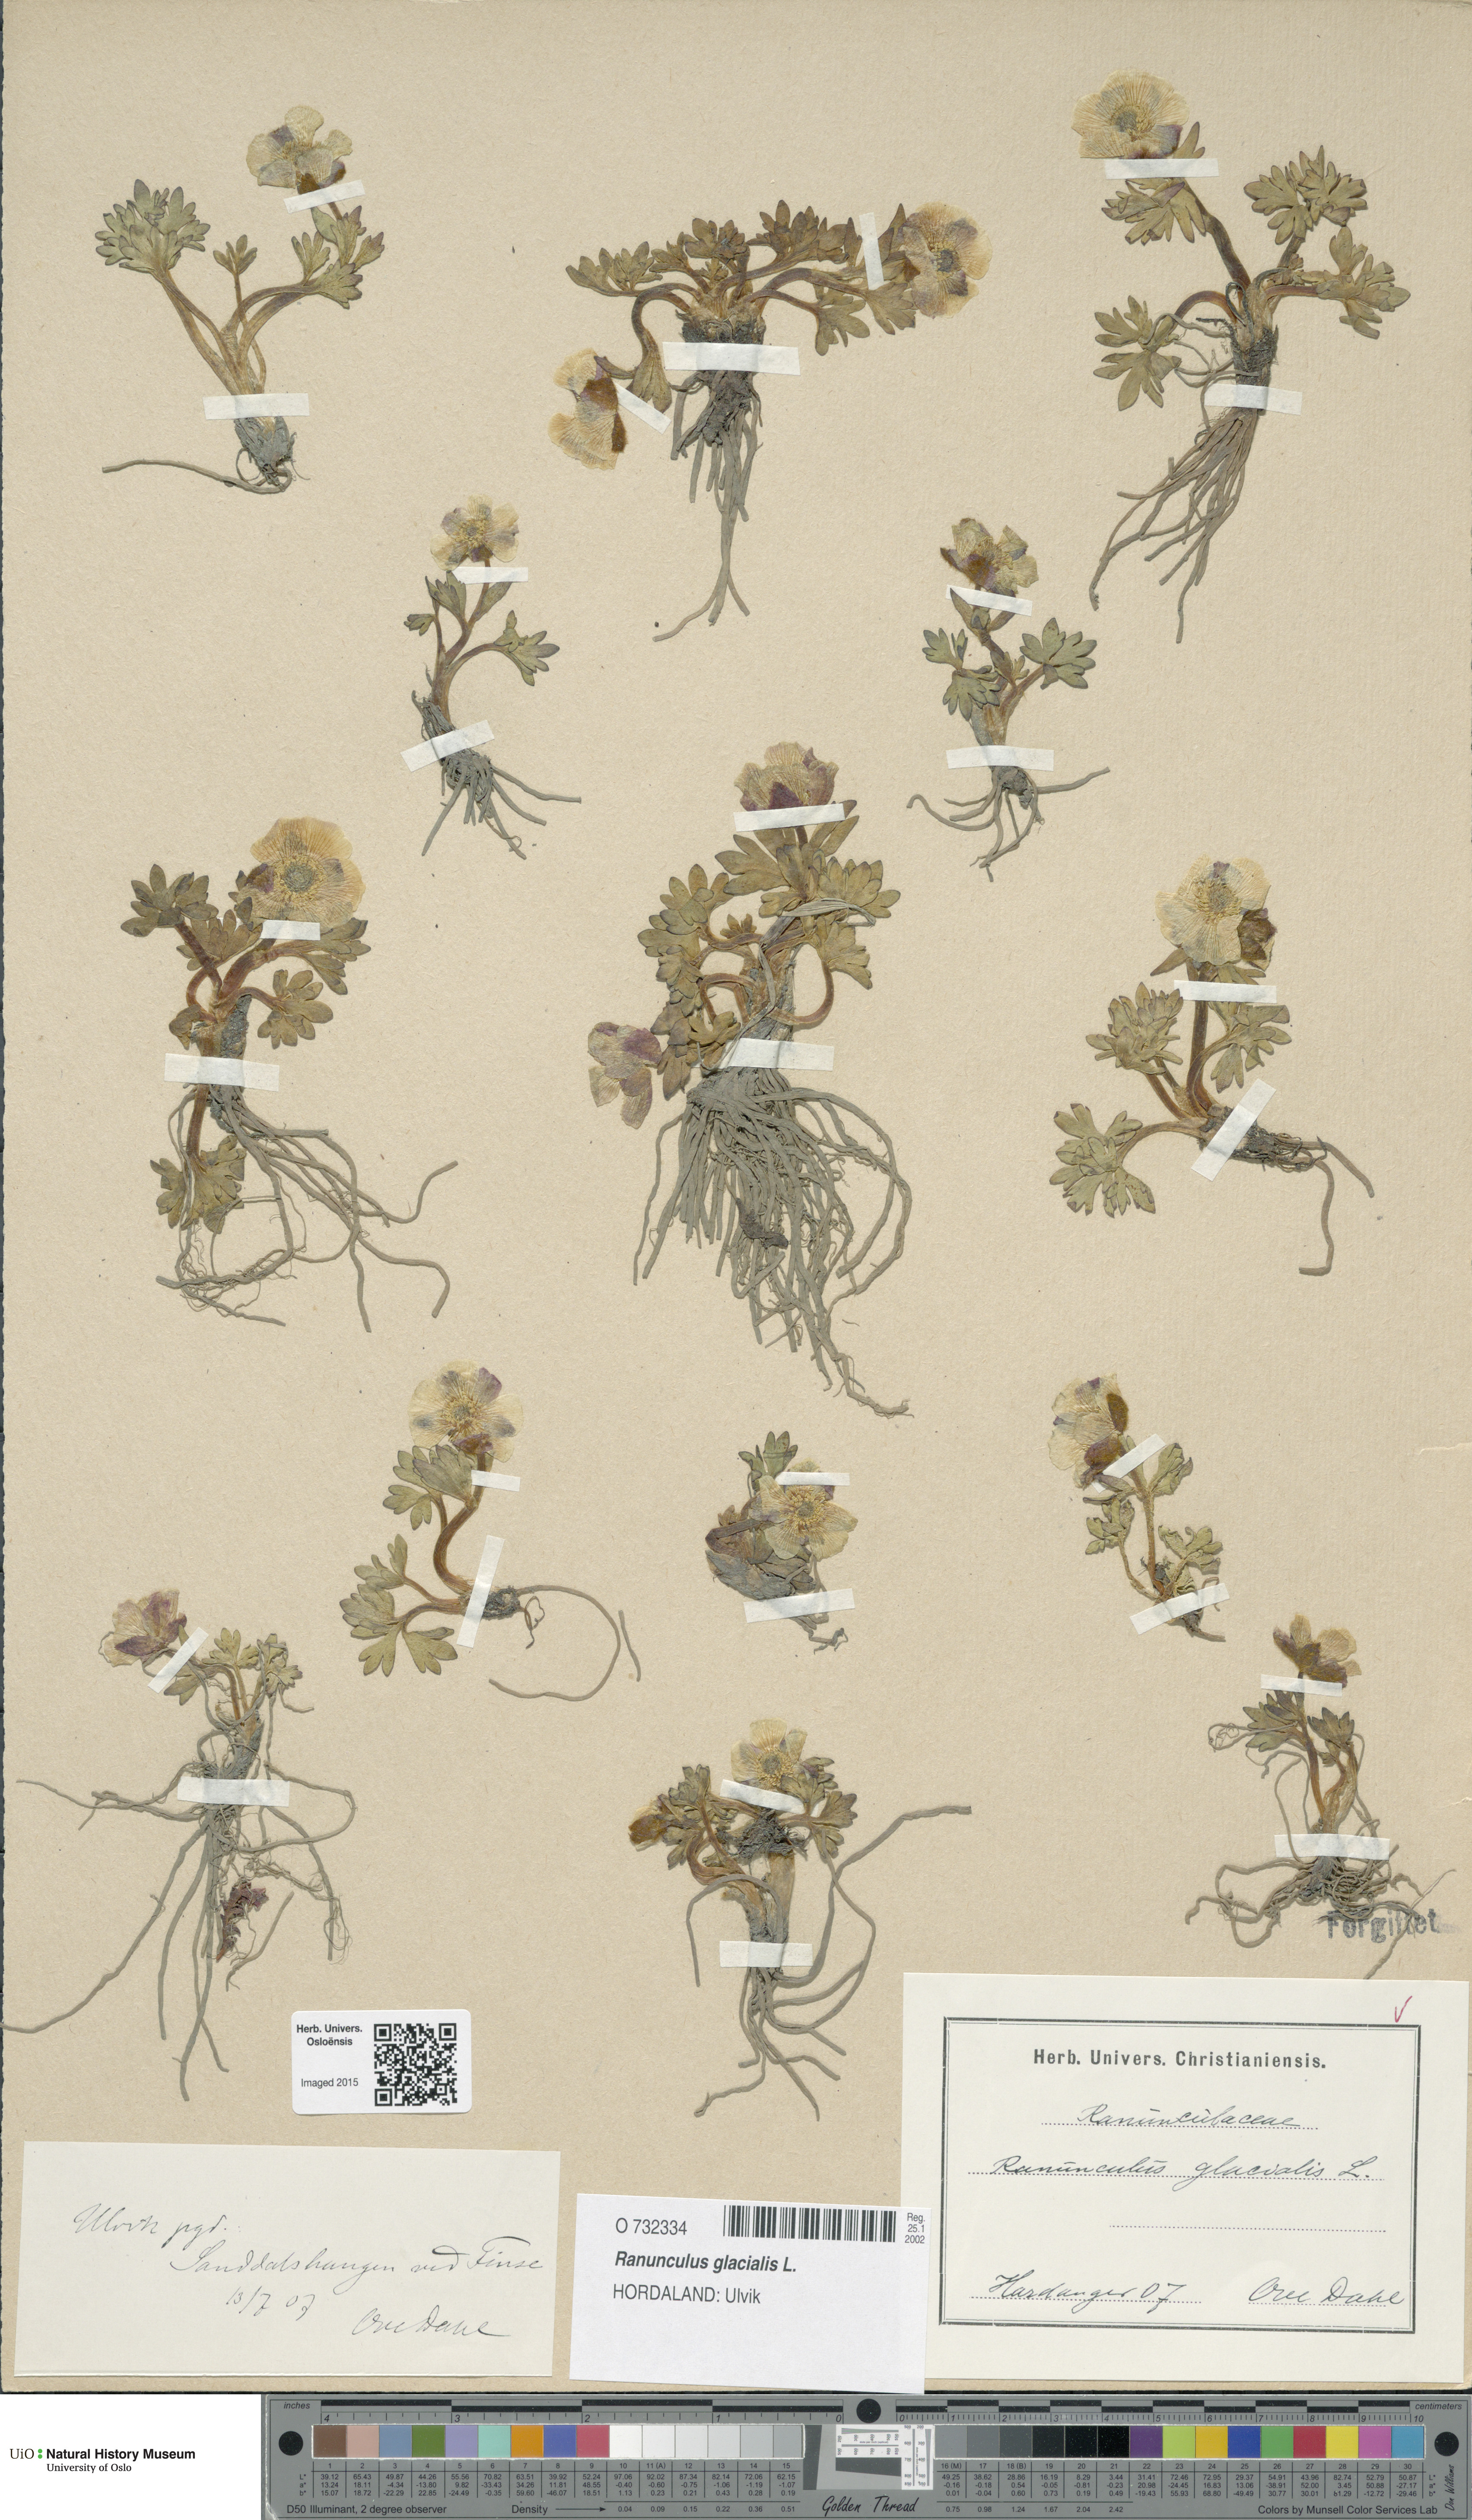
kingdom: Plantae
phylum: Tracheophyta
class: Magnoliopsida
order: Ranunculales
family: Ranunculaceae
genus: Ranunculus
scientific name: Ranunculus glacialis
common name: Glacier buttercup
